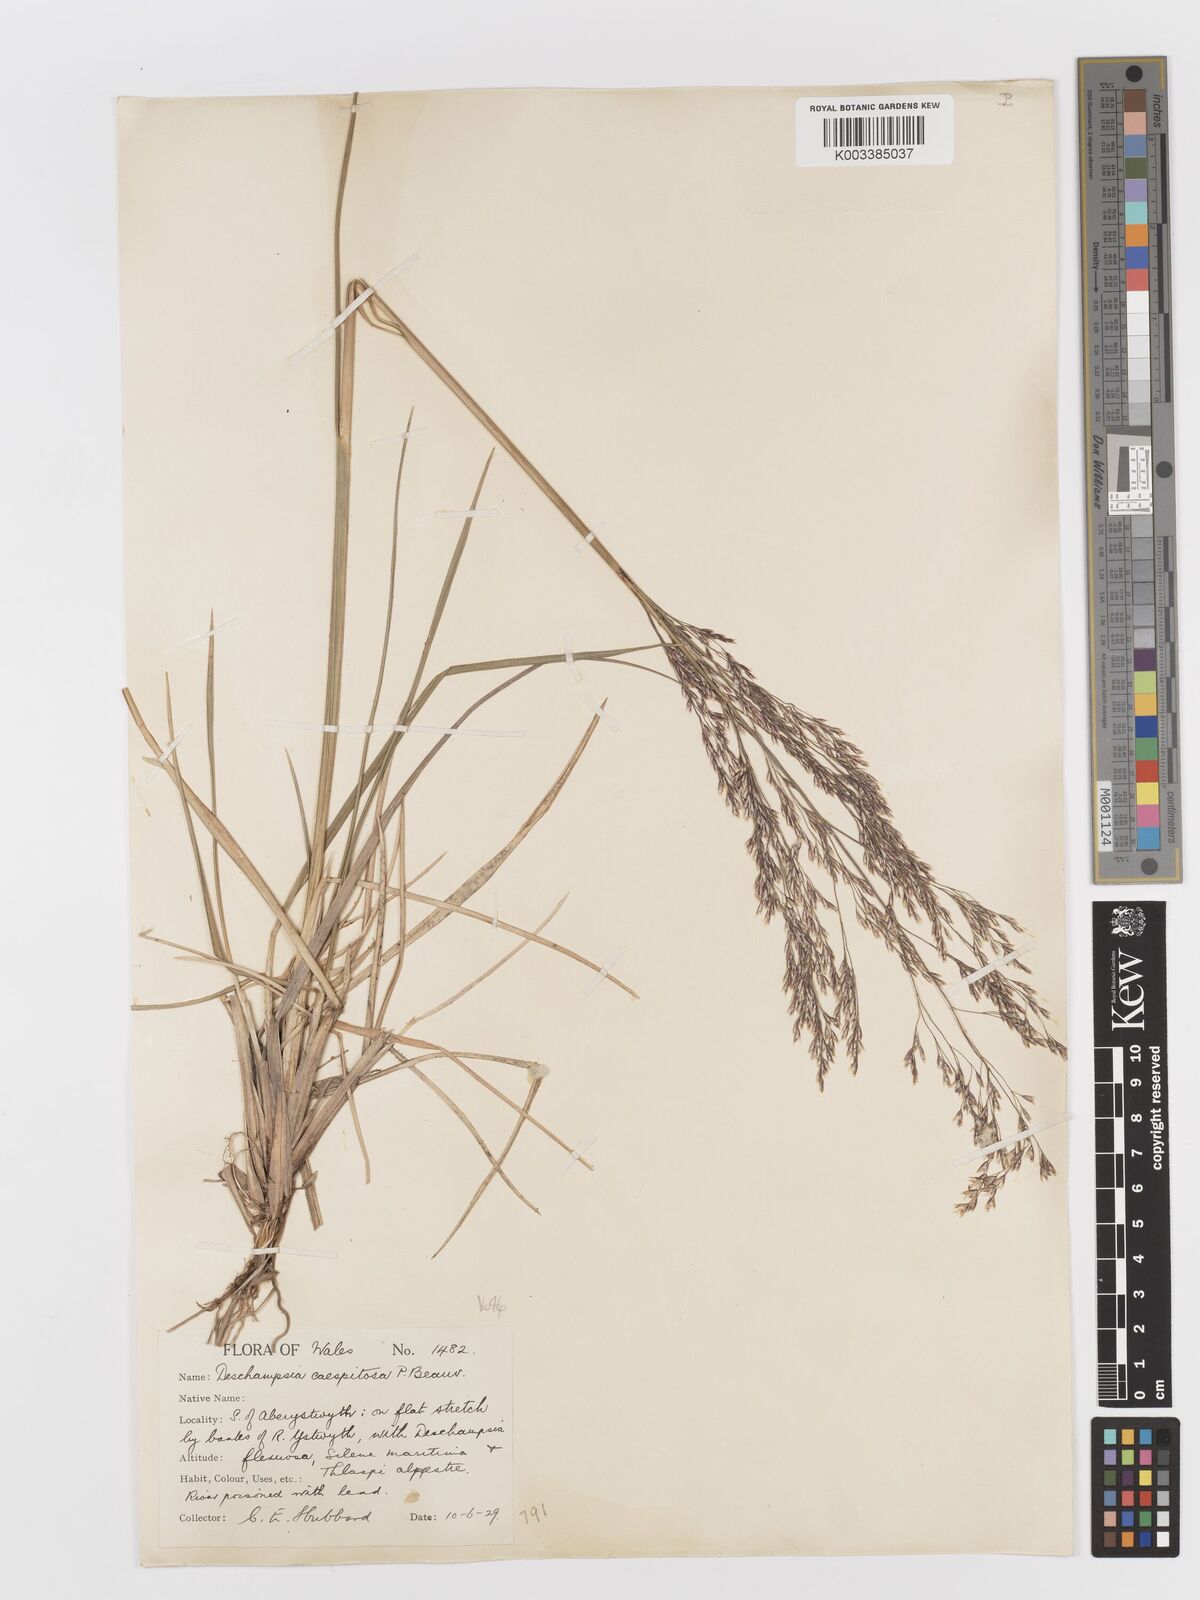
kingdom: Plantae
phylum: Tracheophyta
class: Liliopsida
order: Poales
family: Poaceae
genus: Deschampsia
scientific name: Deschampsia cespitosa
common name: Tufted hair-grass
